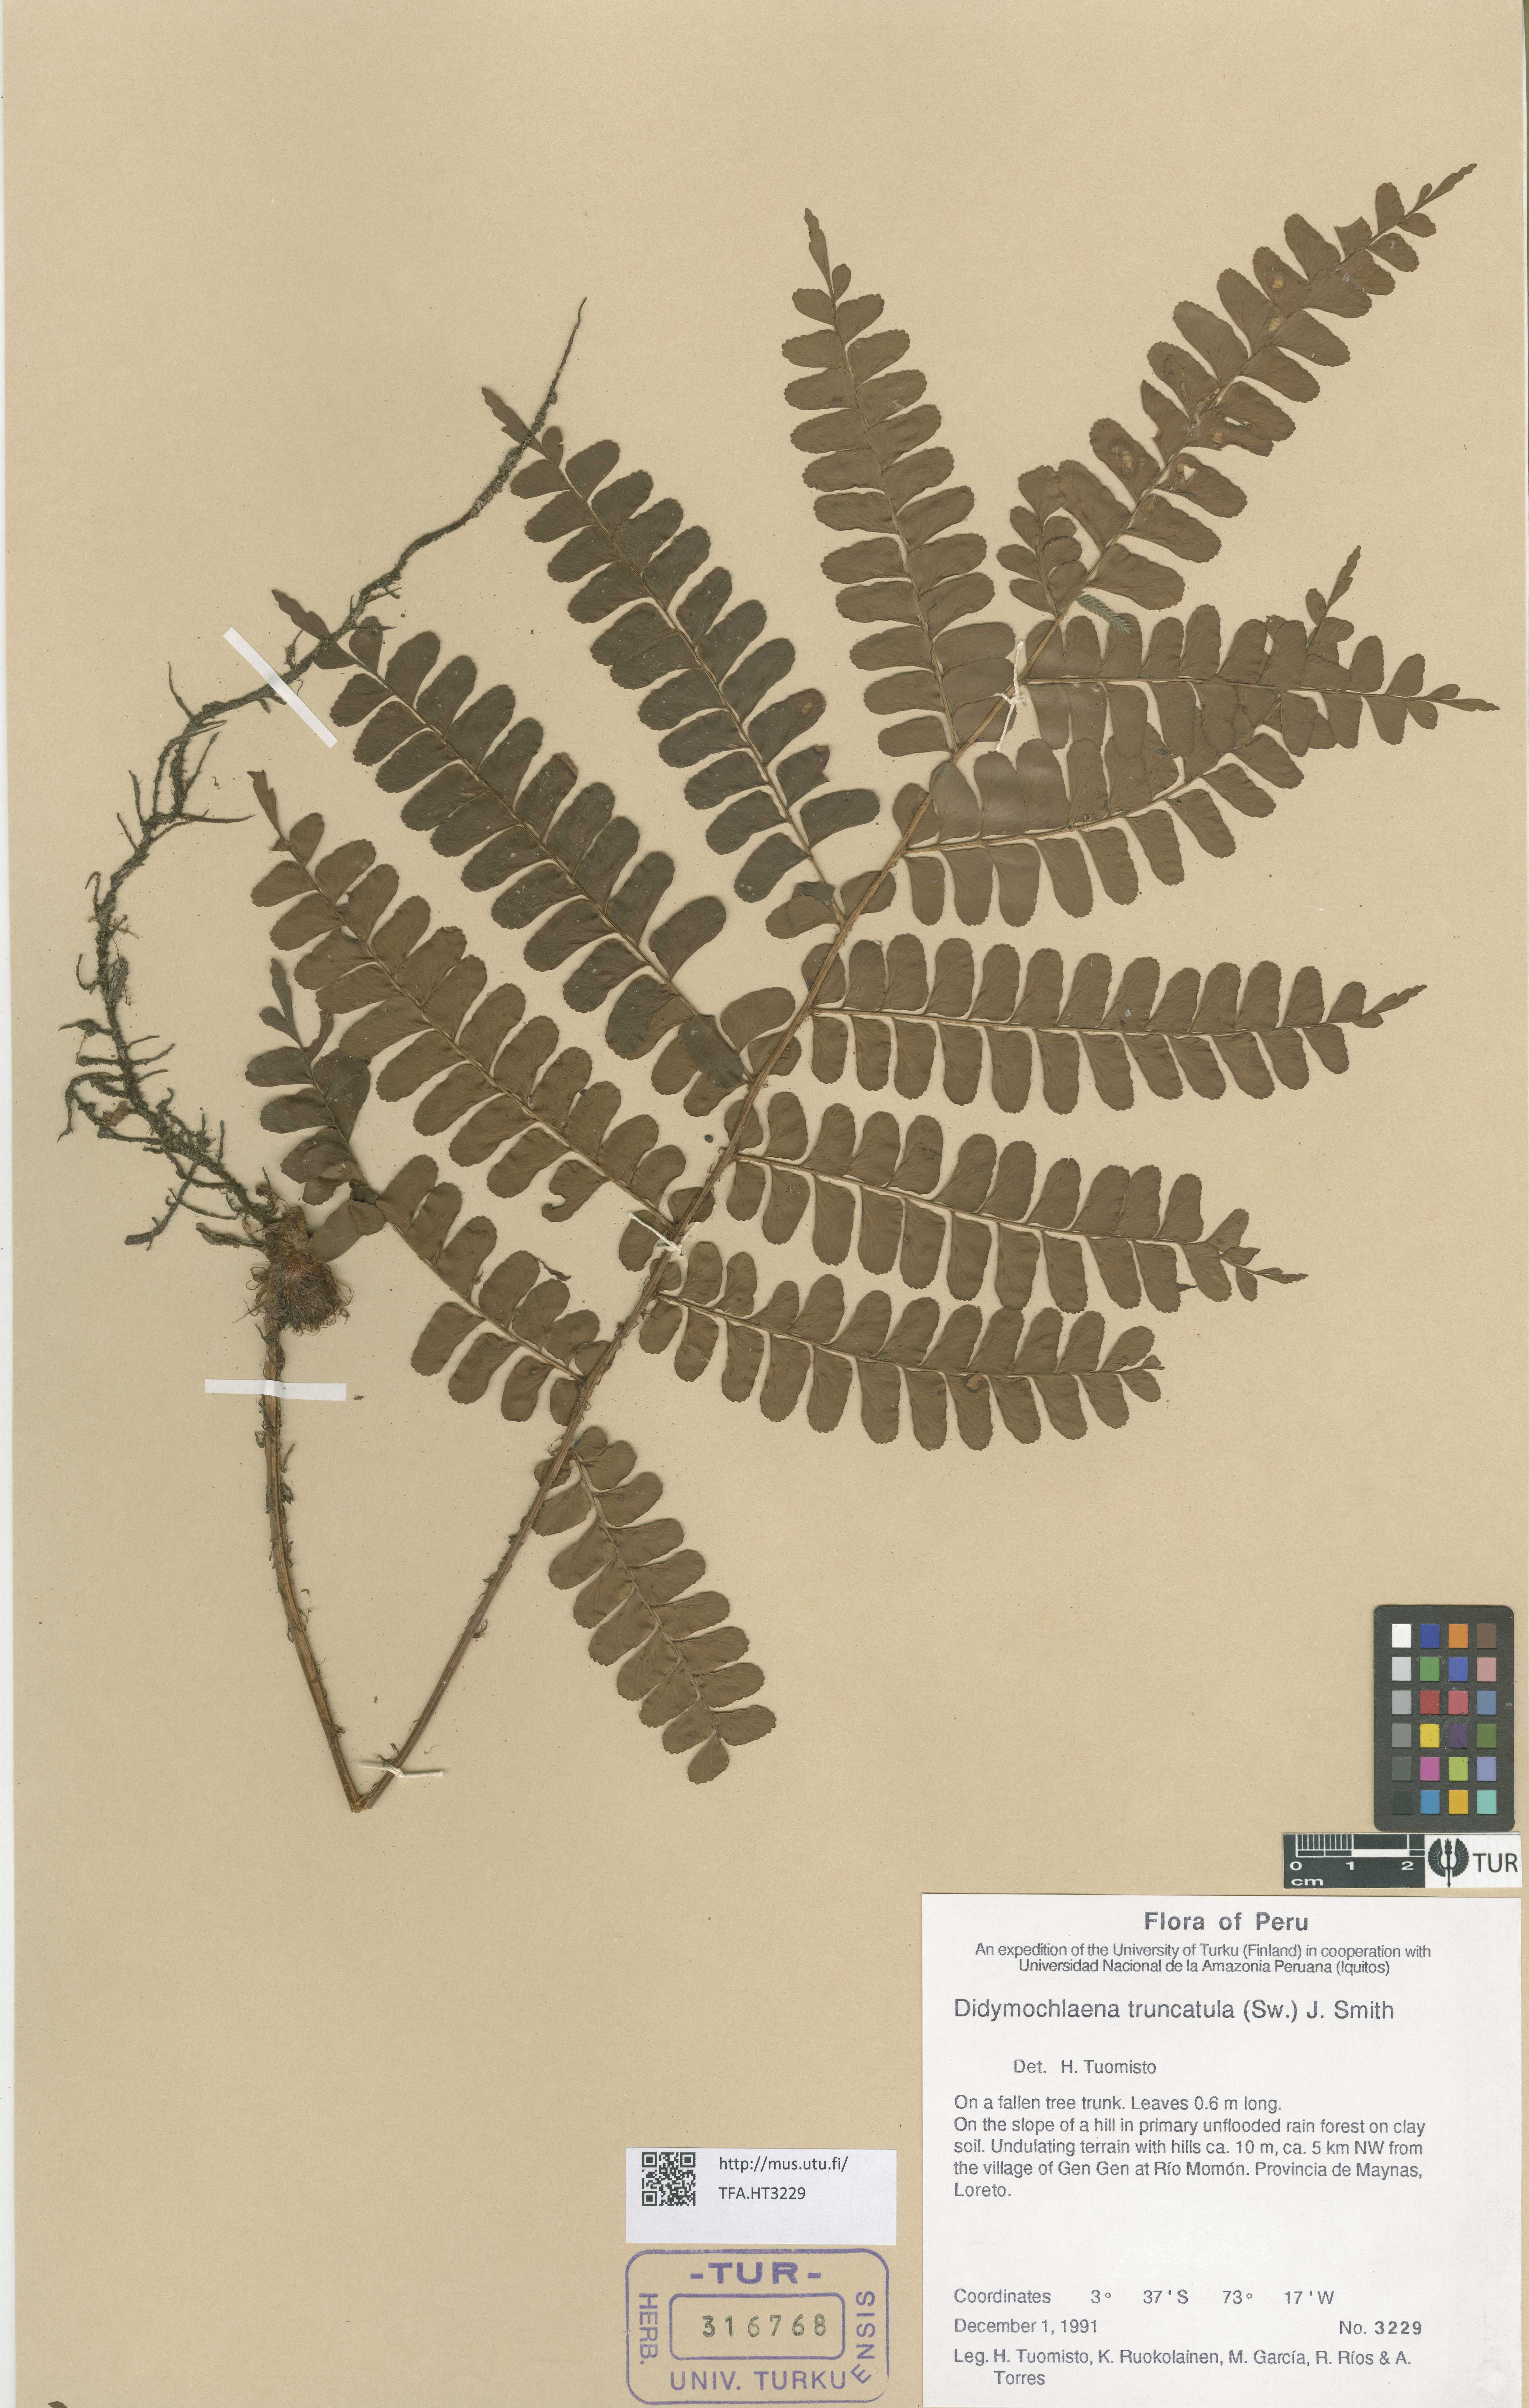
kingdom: Plantae
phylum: Tracheophyta
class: Polypodiopsida
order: Polypodiales
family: Didymochlaenaceae
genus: Didymochlaena
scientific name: Didymochlaena truncatula
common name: Mahogany fern
